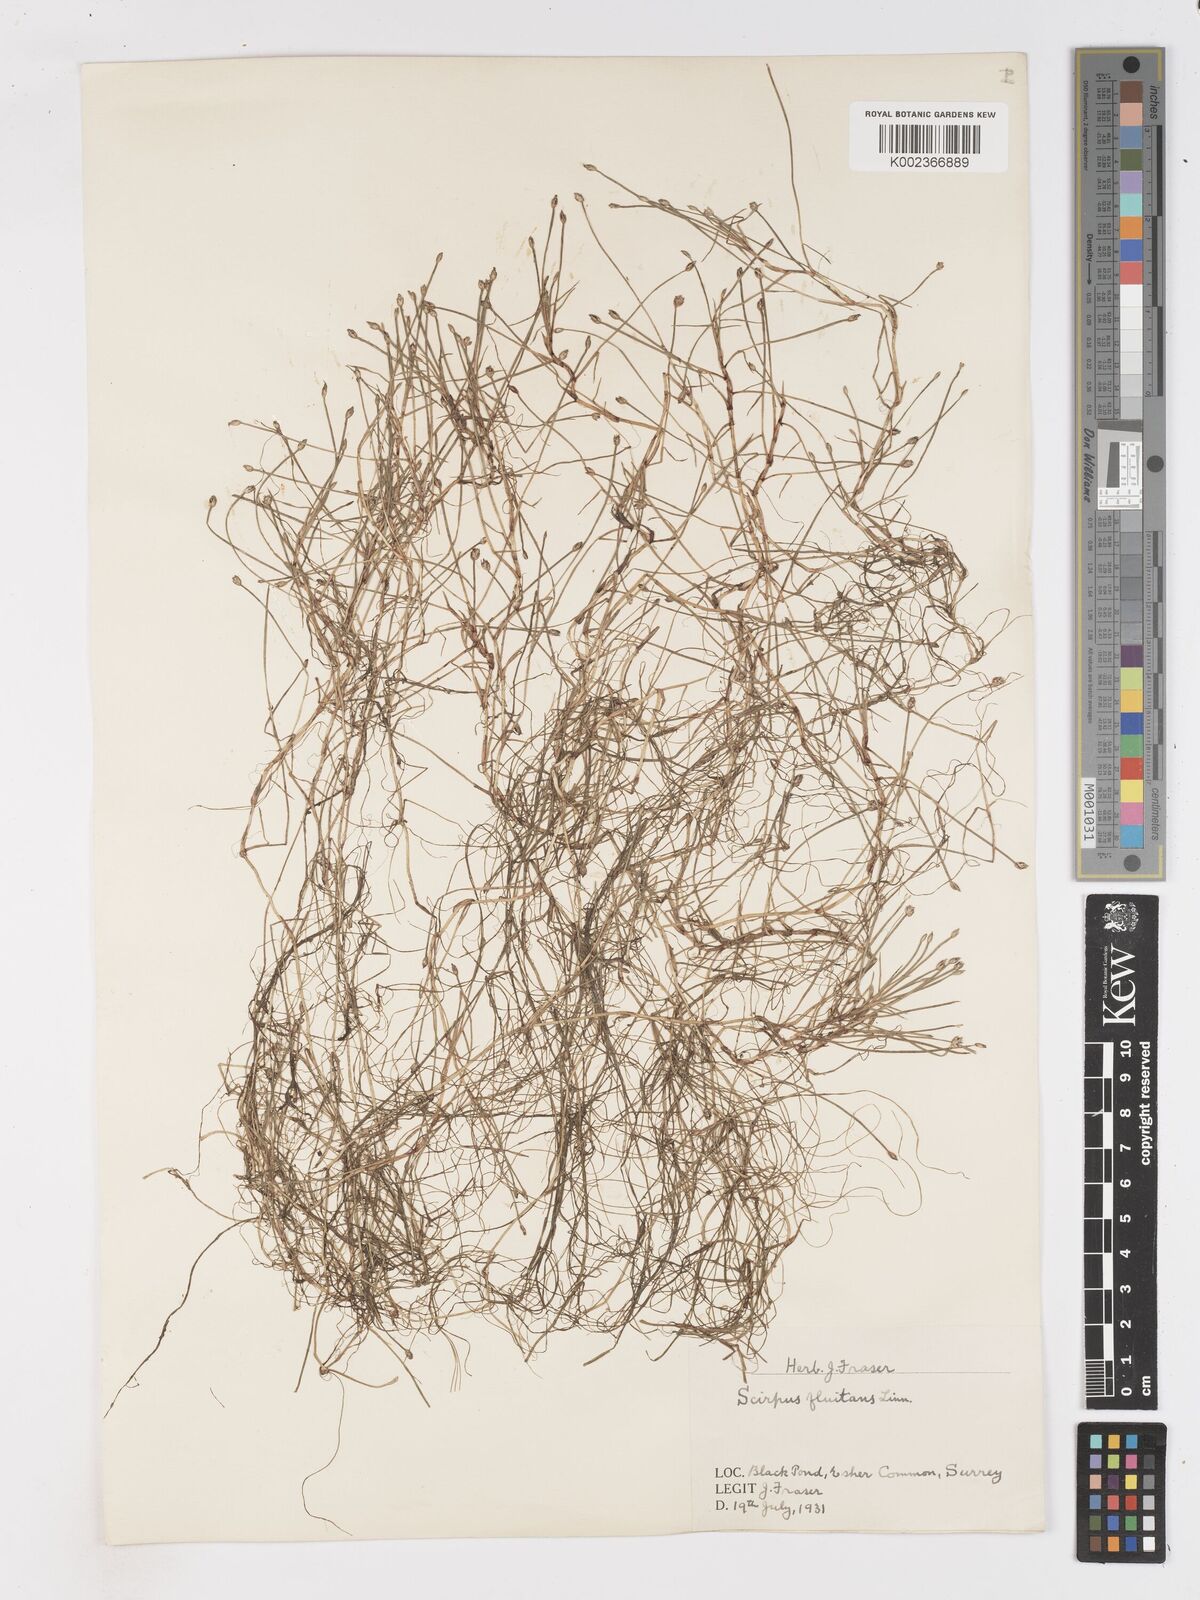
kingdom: Plantae
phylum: Tracheophyta
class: Liliopsida
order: Poales
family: Cyperaceae
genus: Isolepis
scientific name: Isolepis fluitans
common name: Floating club-rush
